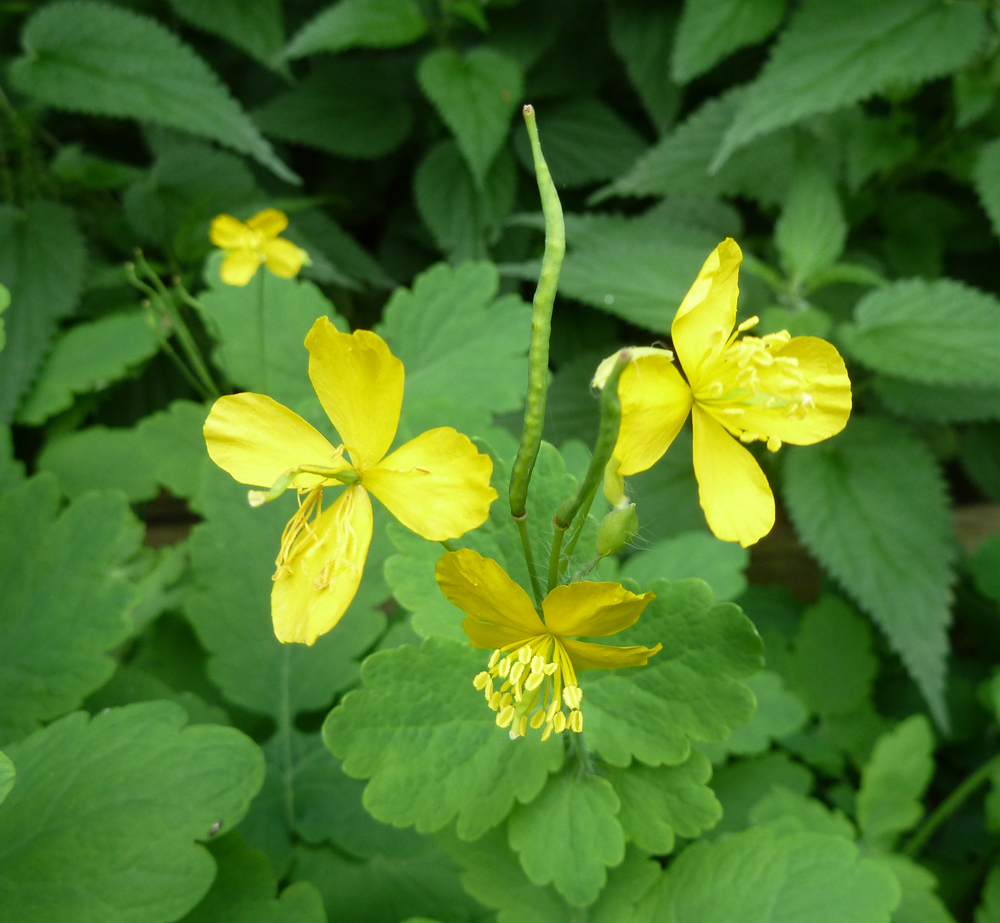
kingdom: Plantae
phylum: Tracheophyta
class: Magnoliopsida
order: Ranunculales
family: Papaveraceae
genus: Chelidonium
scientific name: Chelidonium majus
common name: Greater celandine
